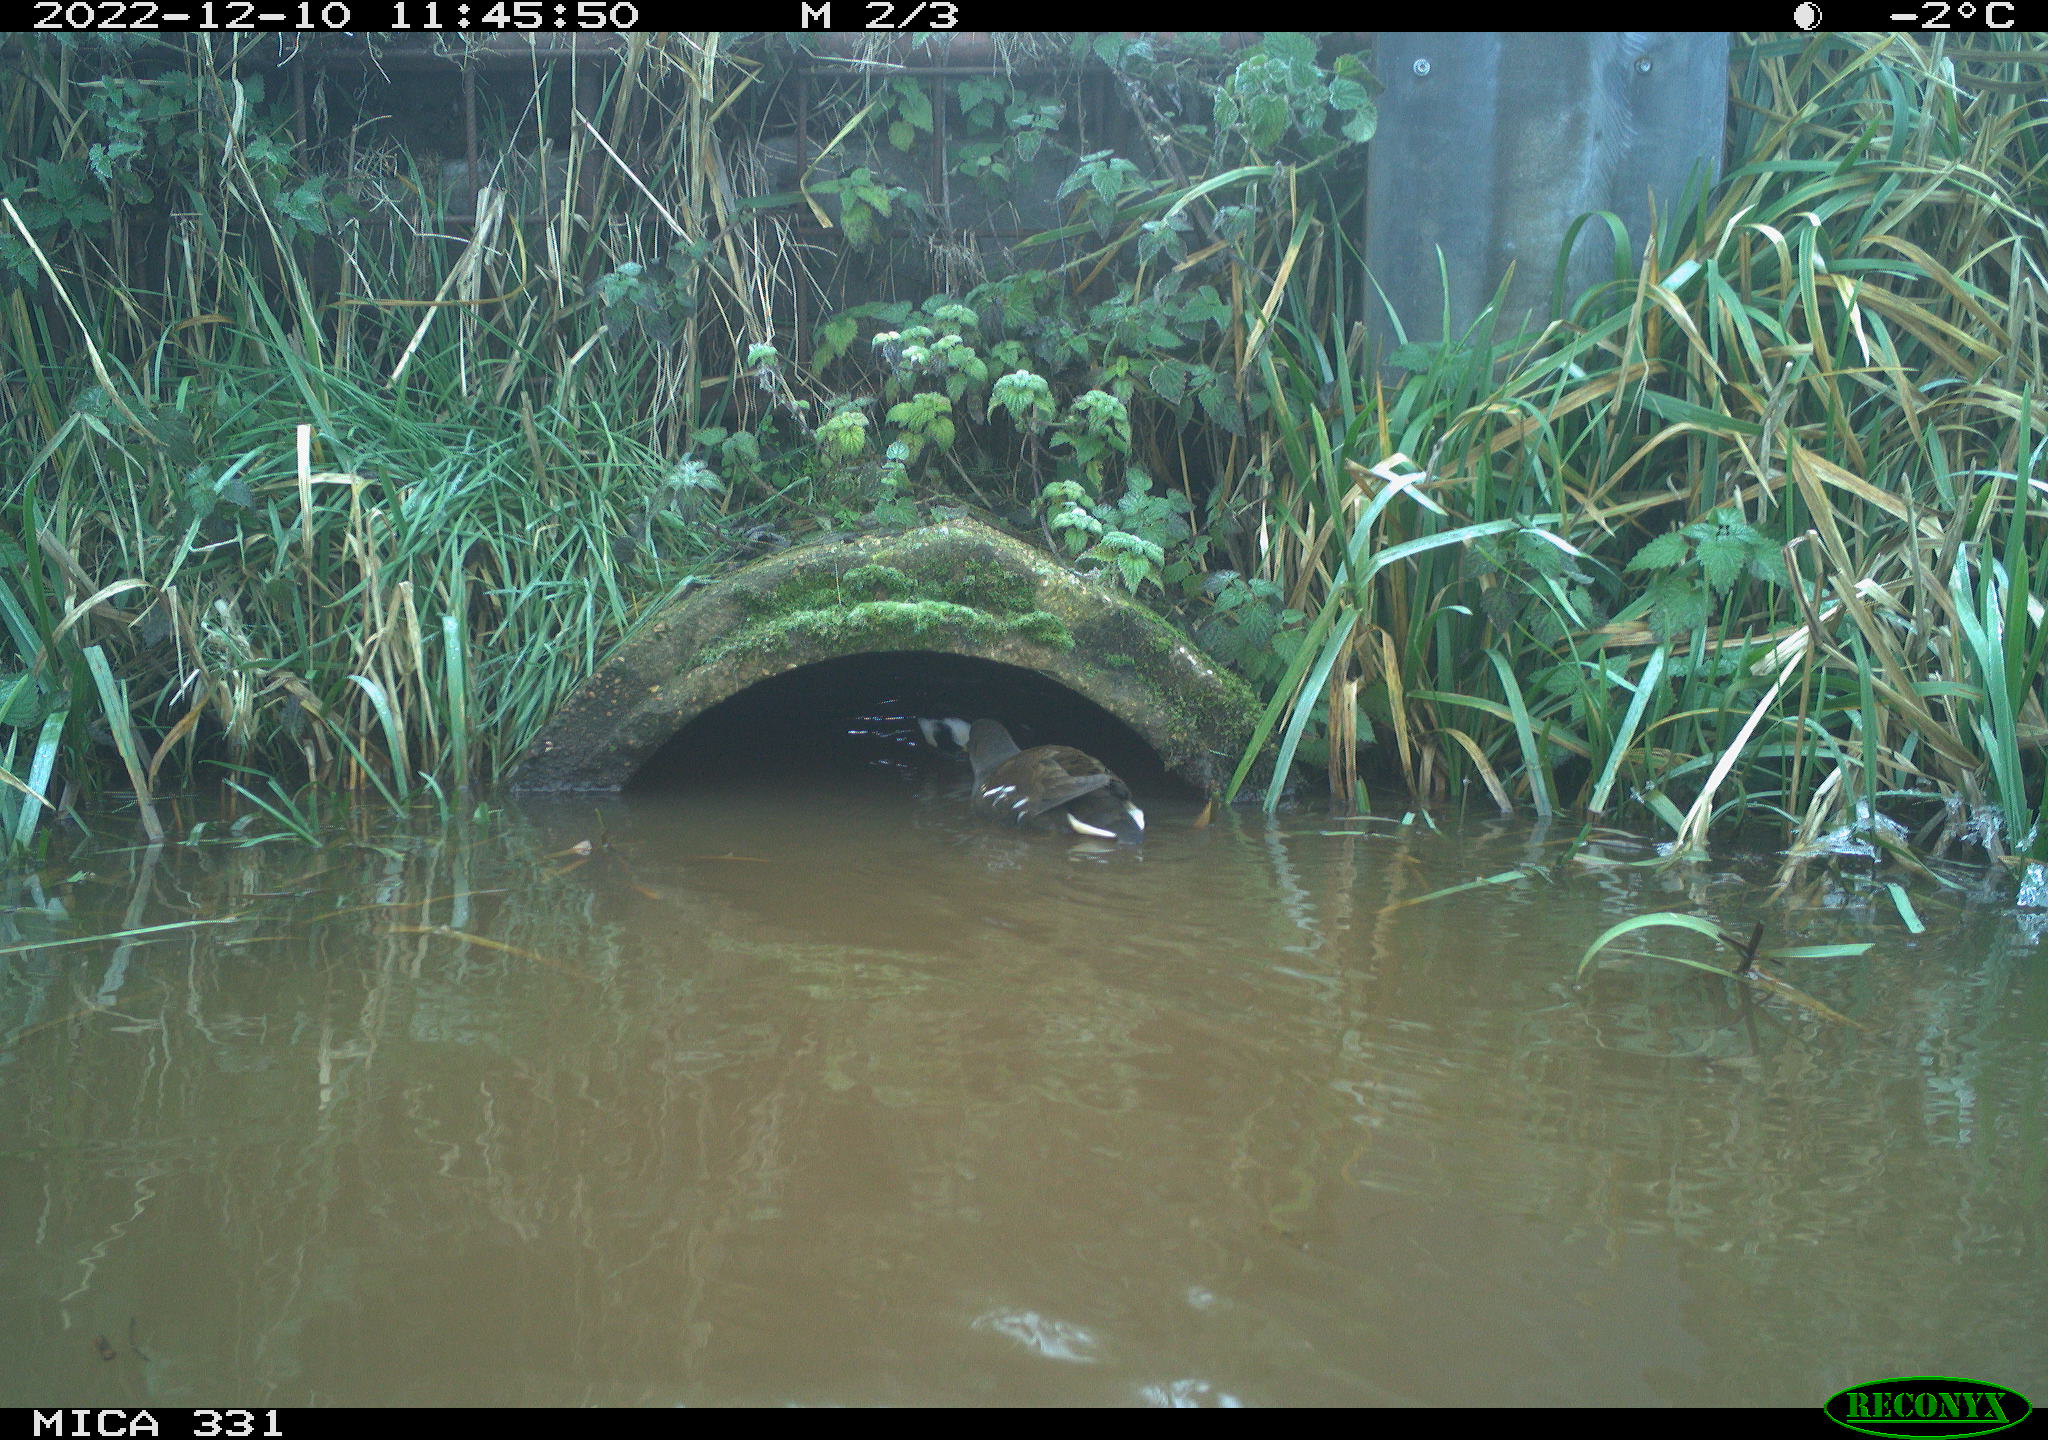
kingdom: Animalia
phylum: Chordata
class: Aves
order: Gruiformes
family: Rallidae
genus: Gallinula
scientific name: Gallinula chloropus
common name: Common moorhen
